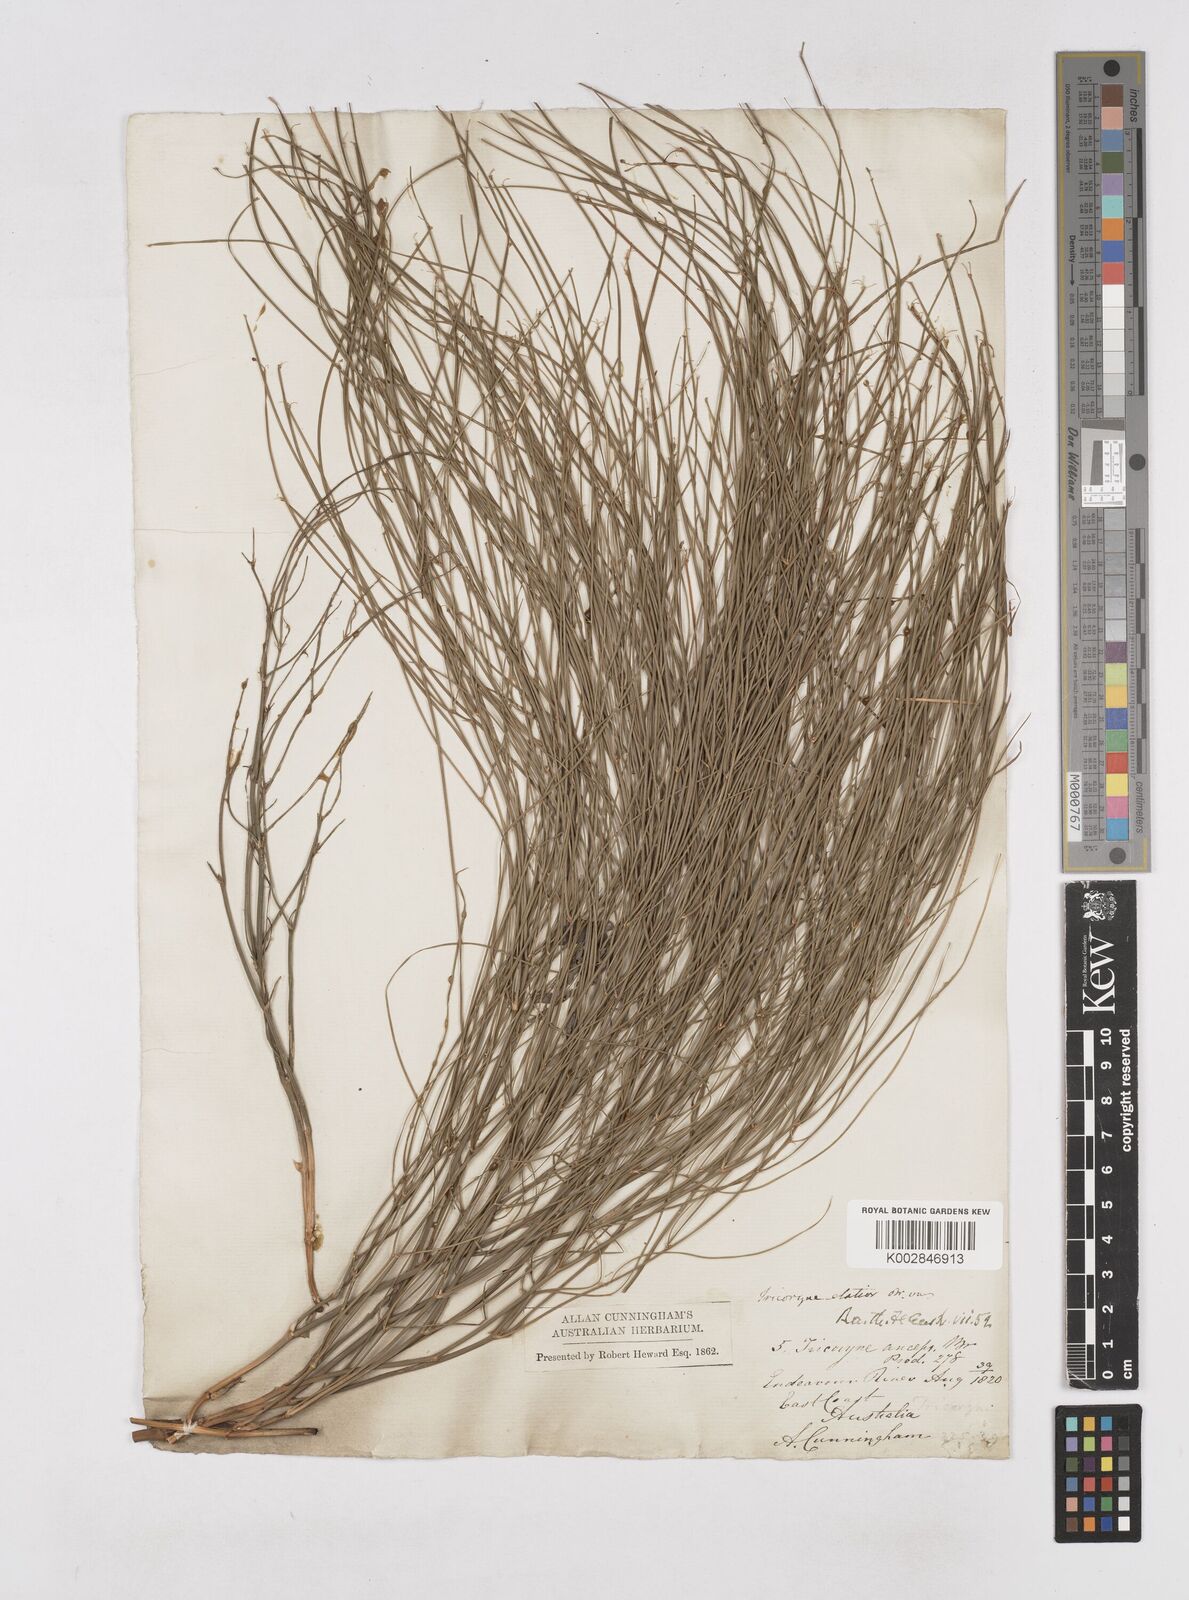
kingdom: Plantae
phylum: Tracheophyta
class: Liliopsida
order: Asparagales
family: Asphodelaceae
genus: Tricoryne
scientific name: Tricoryne elatior
